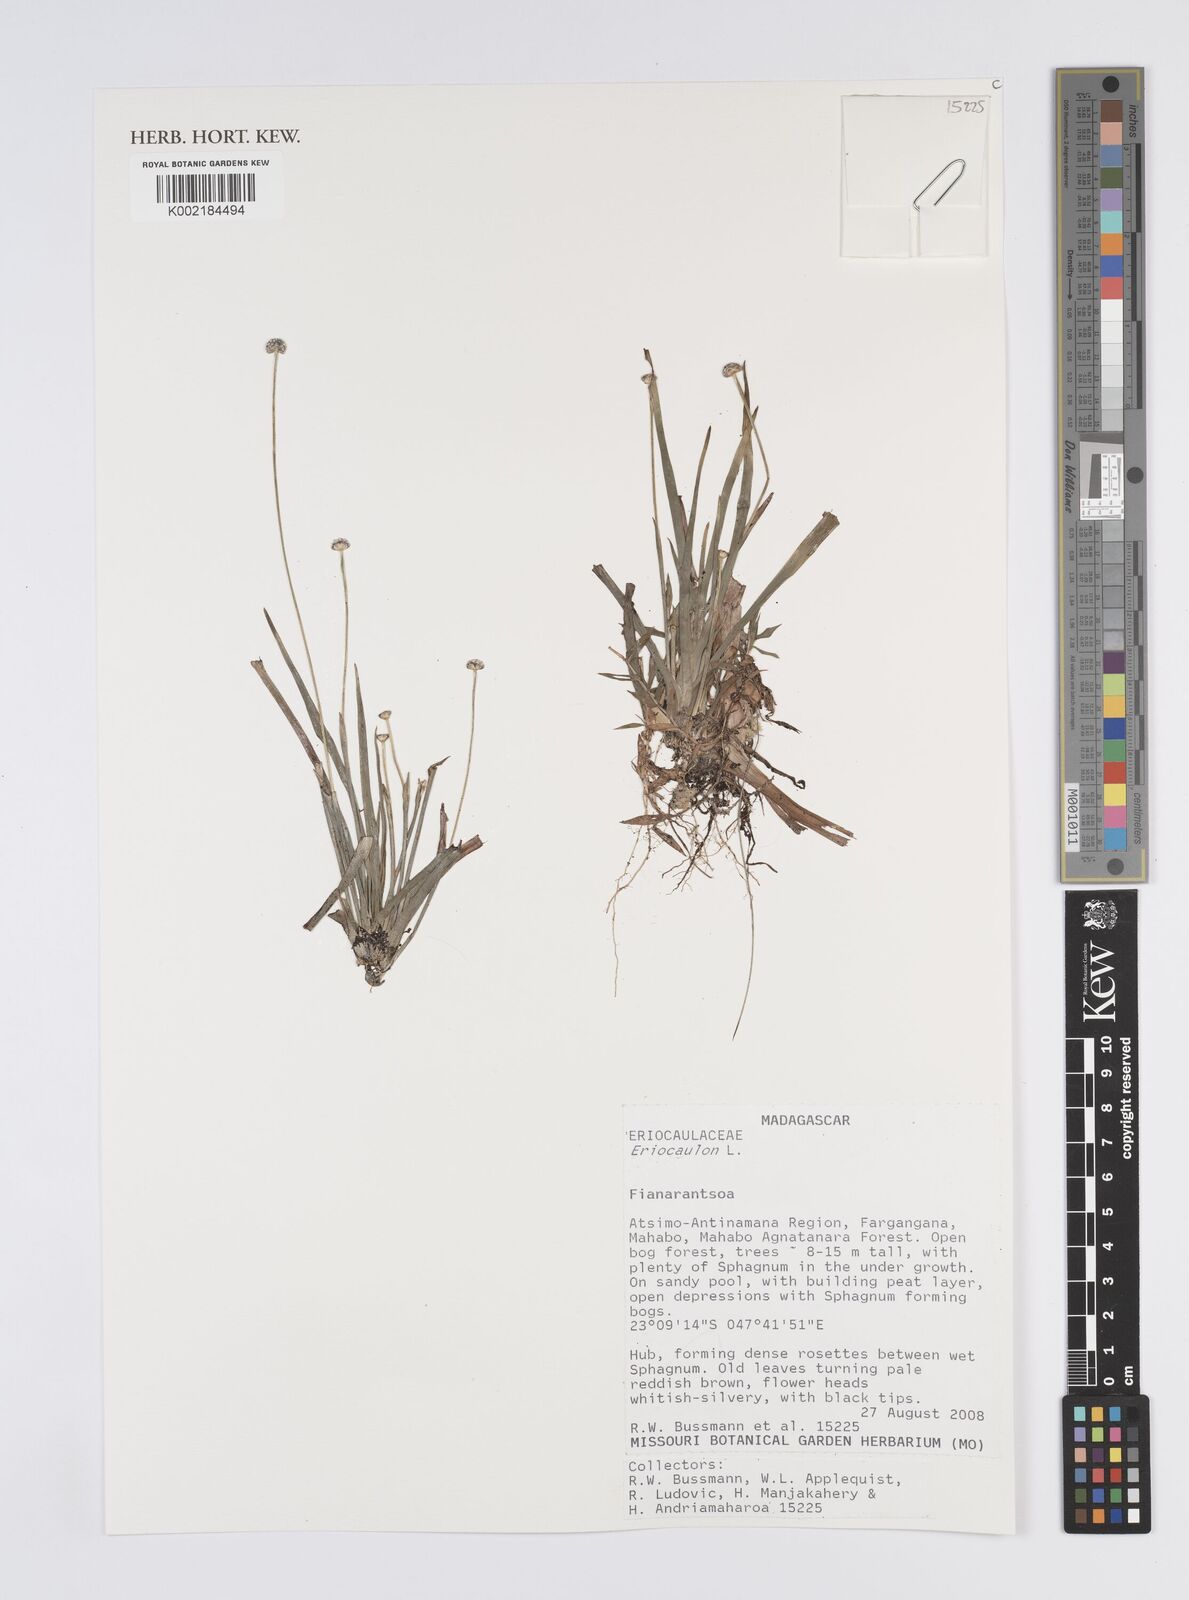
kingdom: Plantae
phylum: Tracheophyta
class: Liliopsida
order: Poales
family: Eriocaulaceae
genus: Eriocaulon
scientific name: Eriocaulon
